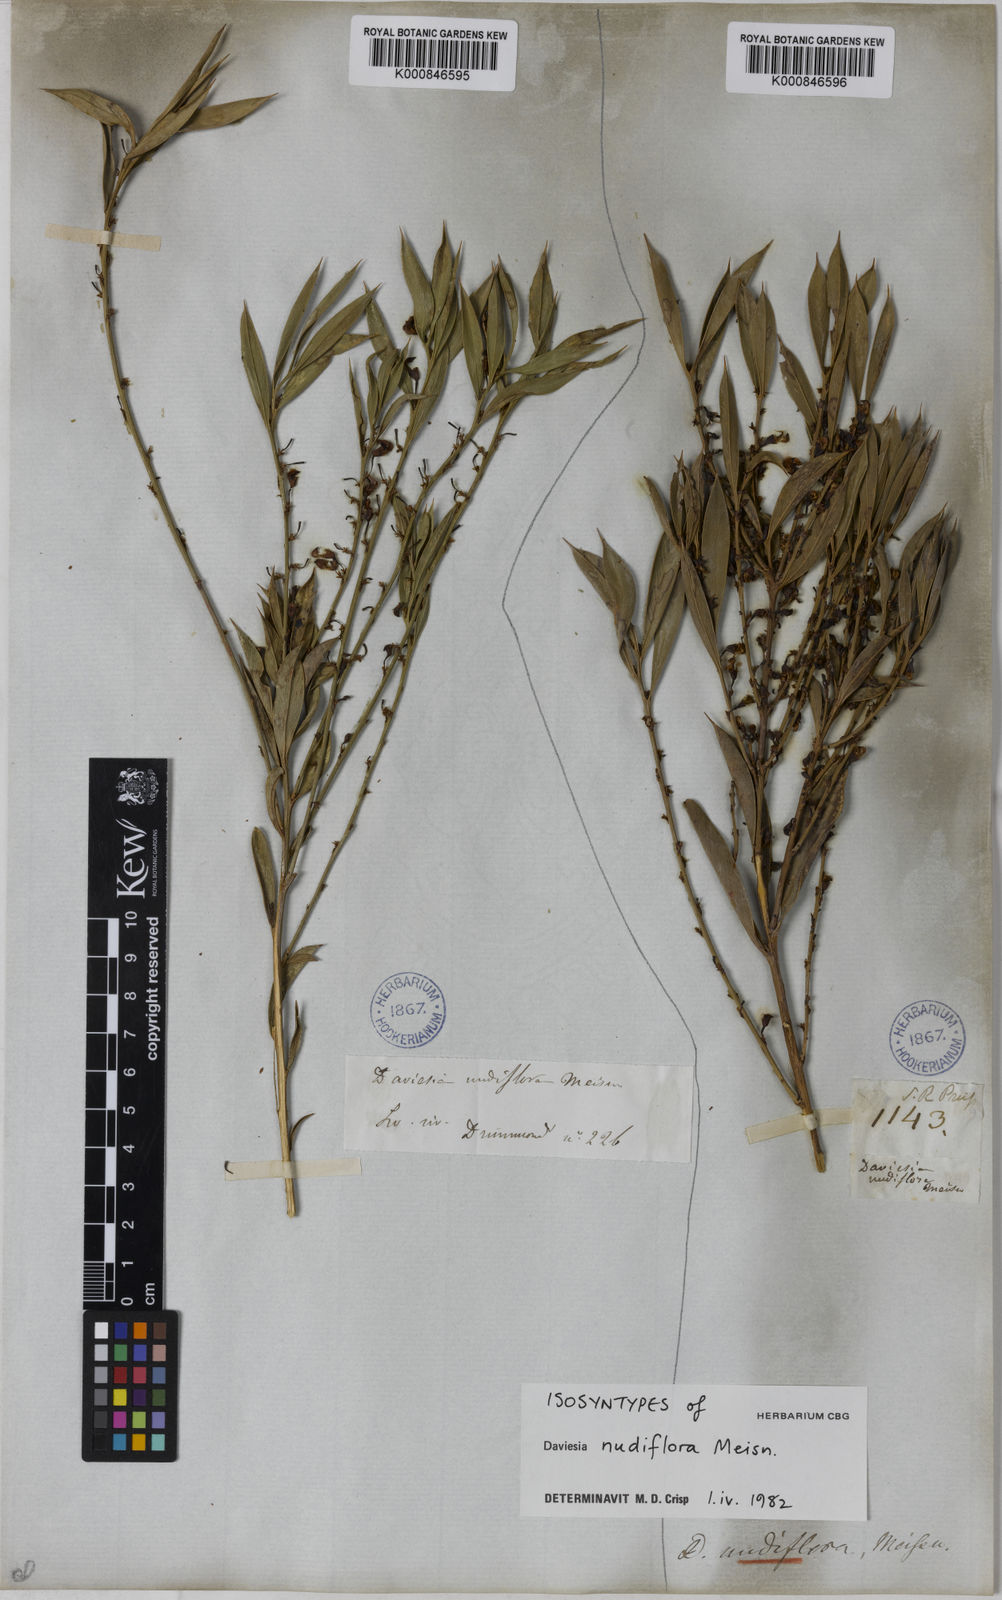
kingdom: Plantae
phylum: Tracheophyta
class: Magnoliopsida
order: Fabales
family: Fabaceae
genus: Daviesia
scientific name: Daviesia nudiflora
